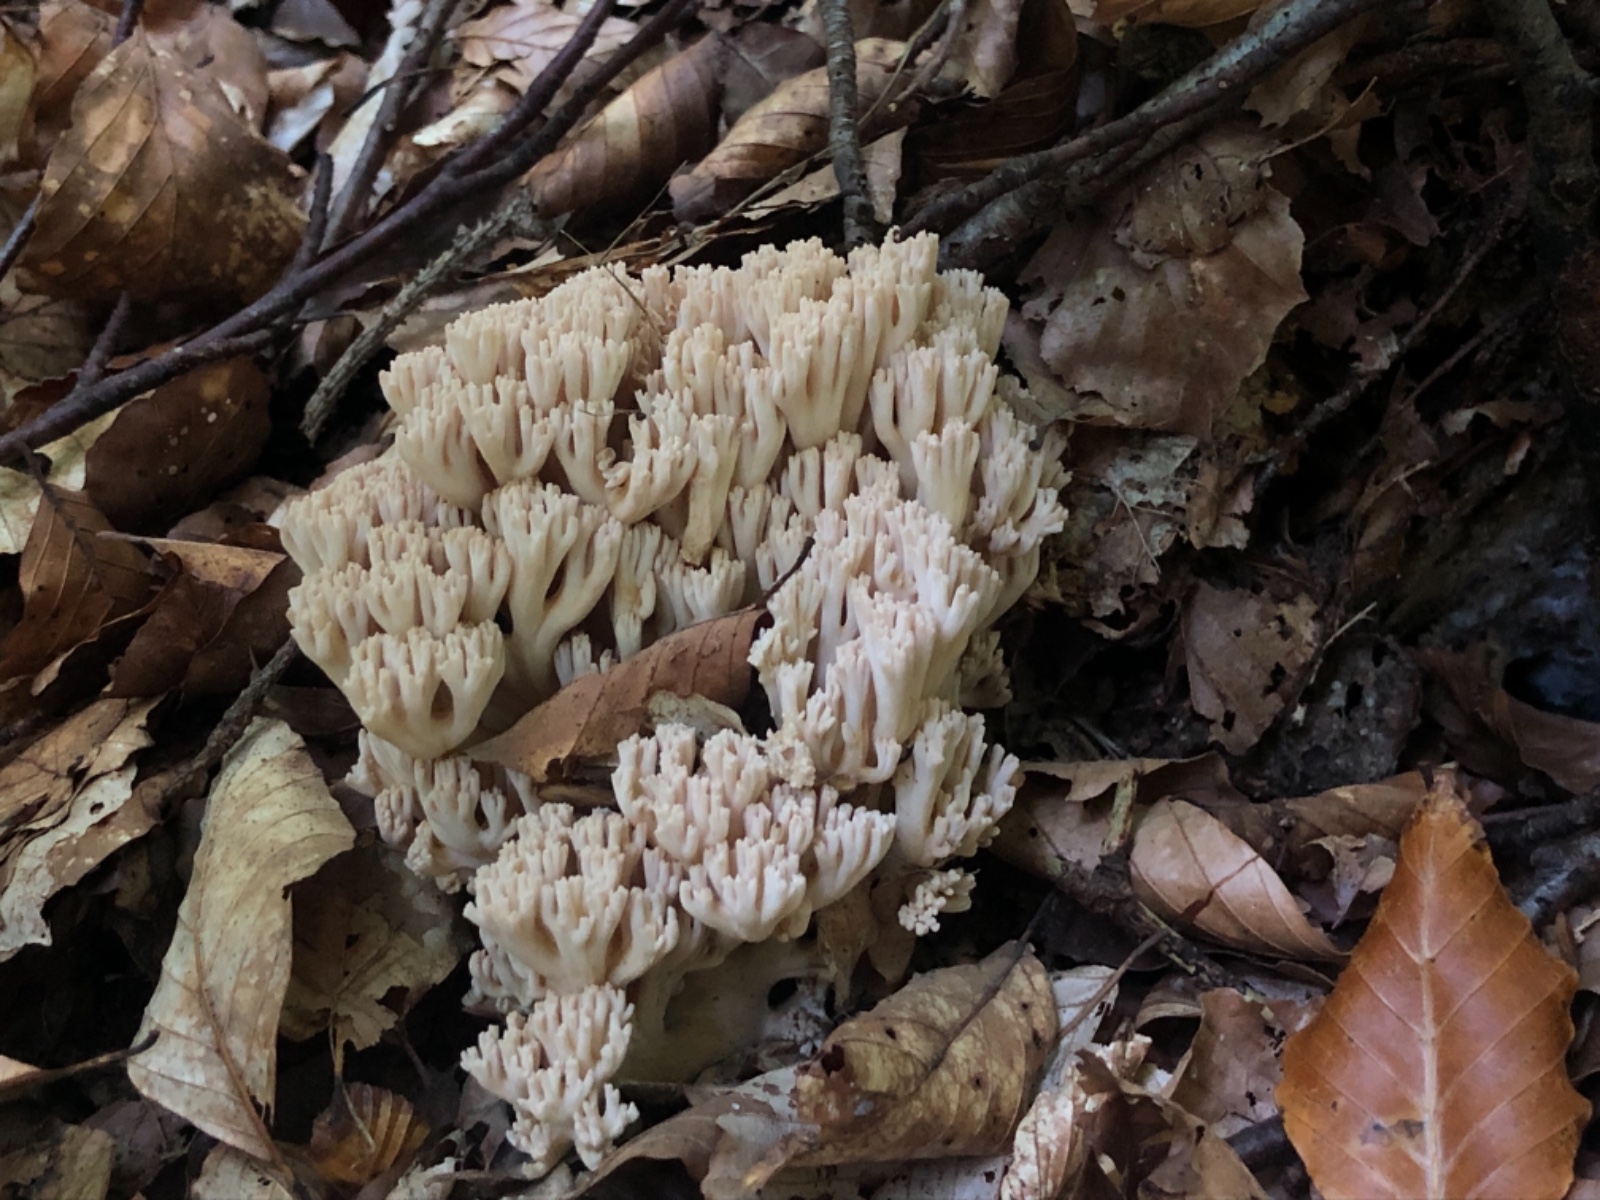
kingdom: Fungi
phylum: Basidiomycota
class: Agaricomycetes
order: Gomphales
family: Gomphaceae
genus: Ramaria
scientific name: Ramaria
